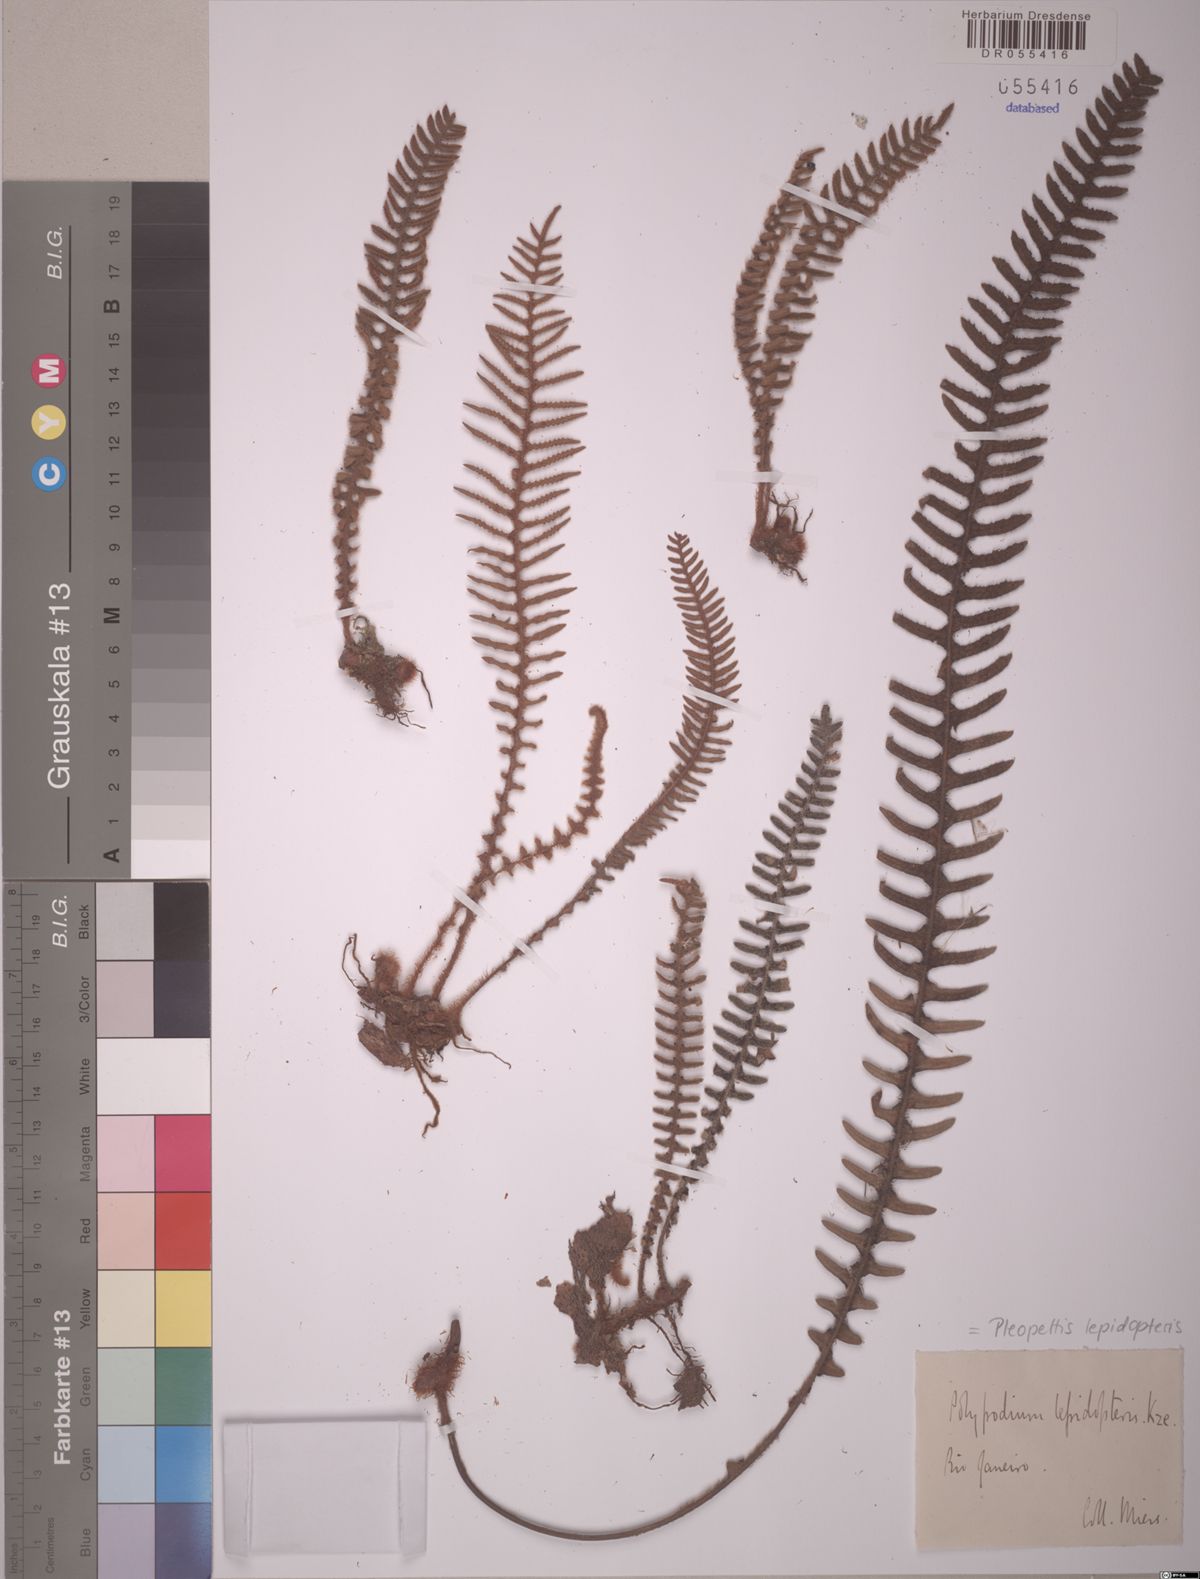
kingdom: Plantae
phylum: Tracheophyta
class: Polypodiopsida
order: Polypodiales
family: Polypodiaceae
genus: Pleopeltis
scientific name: Pleopeltis lepidopteris
